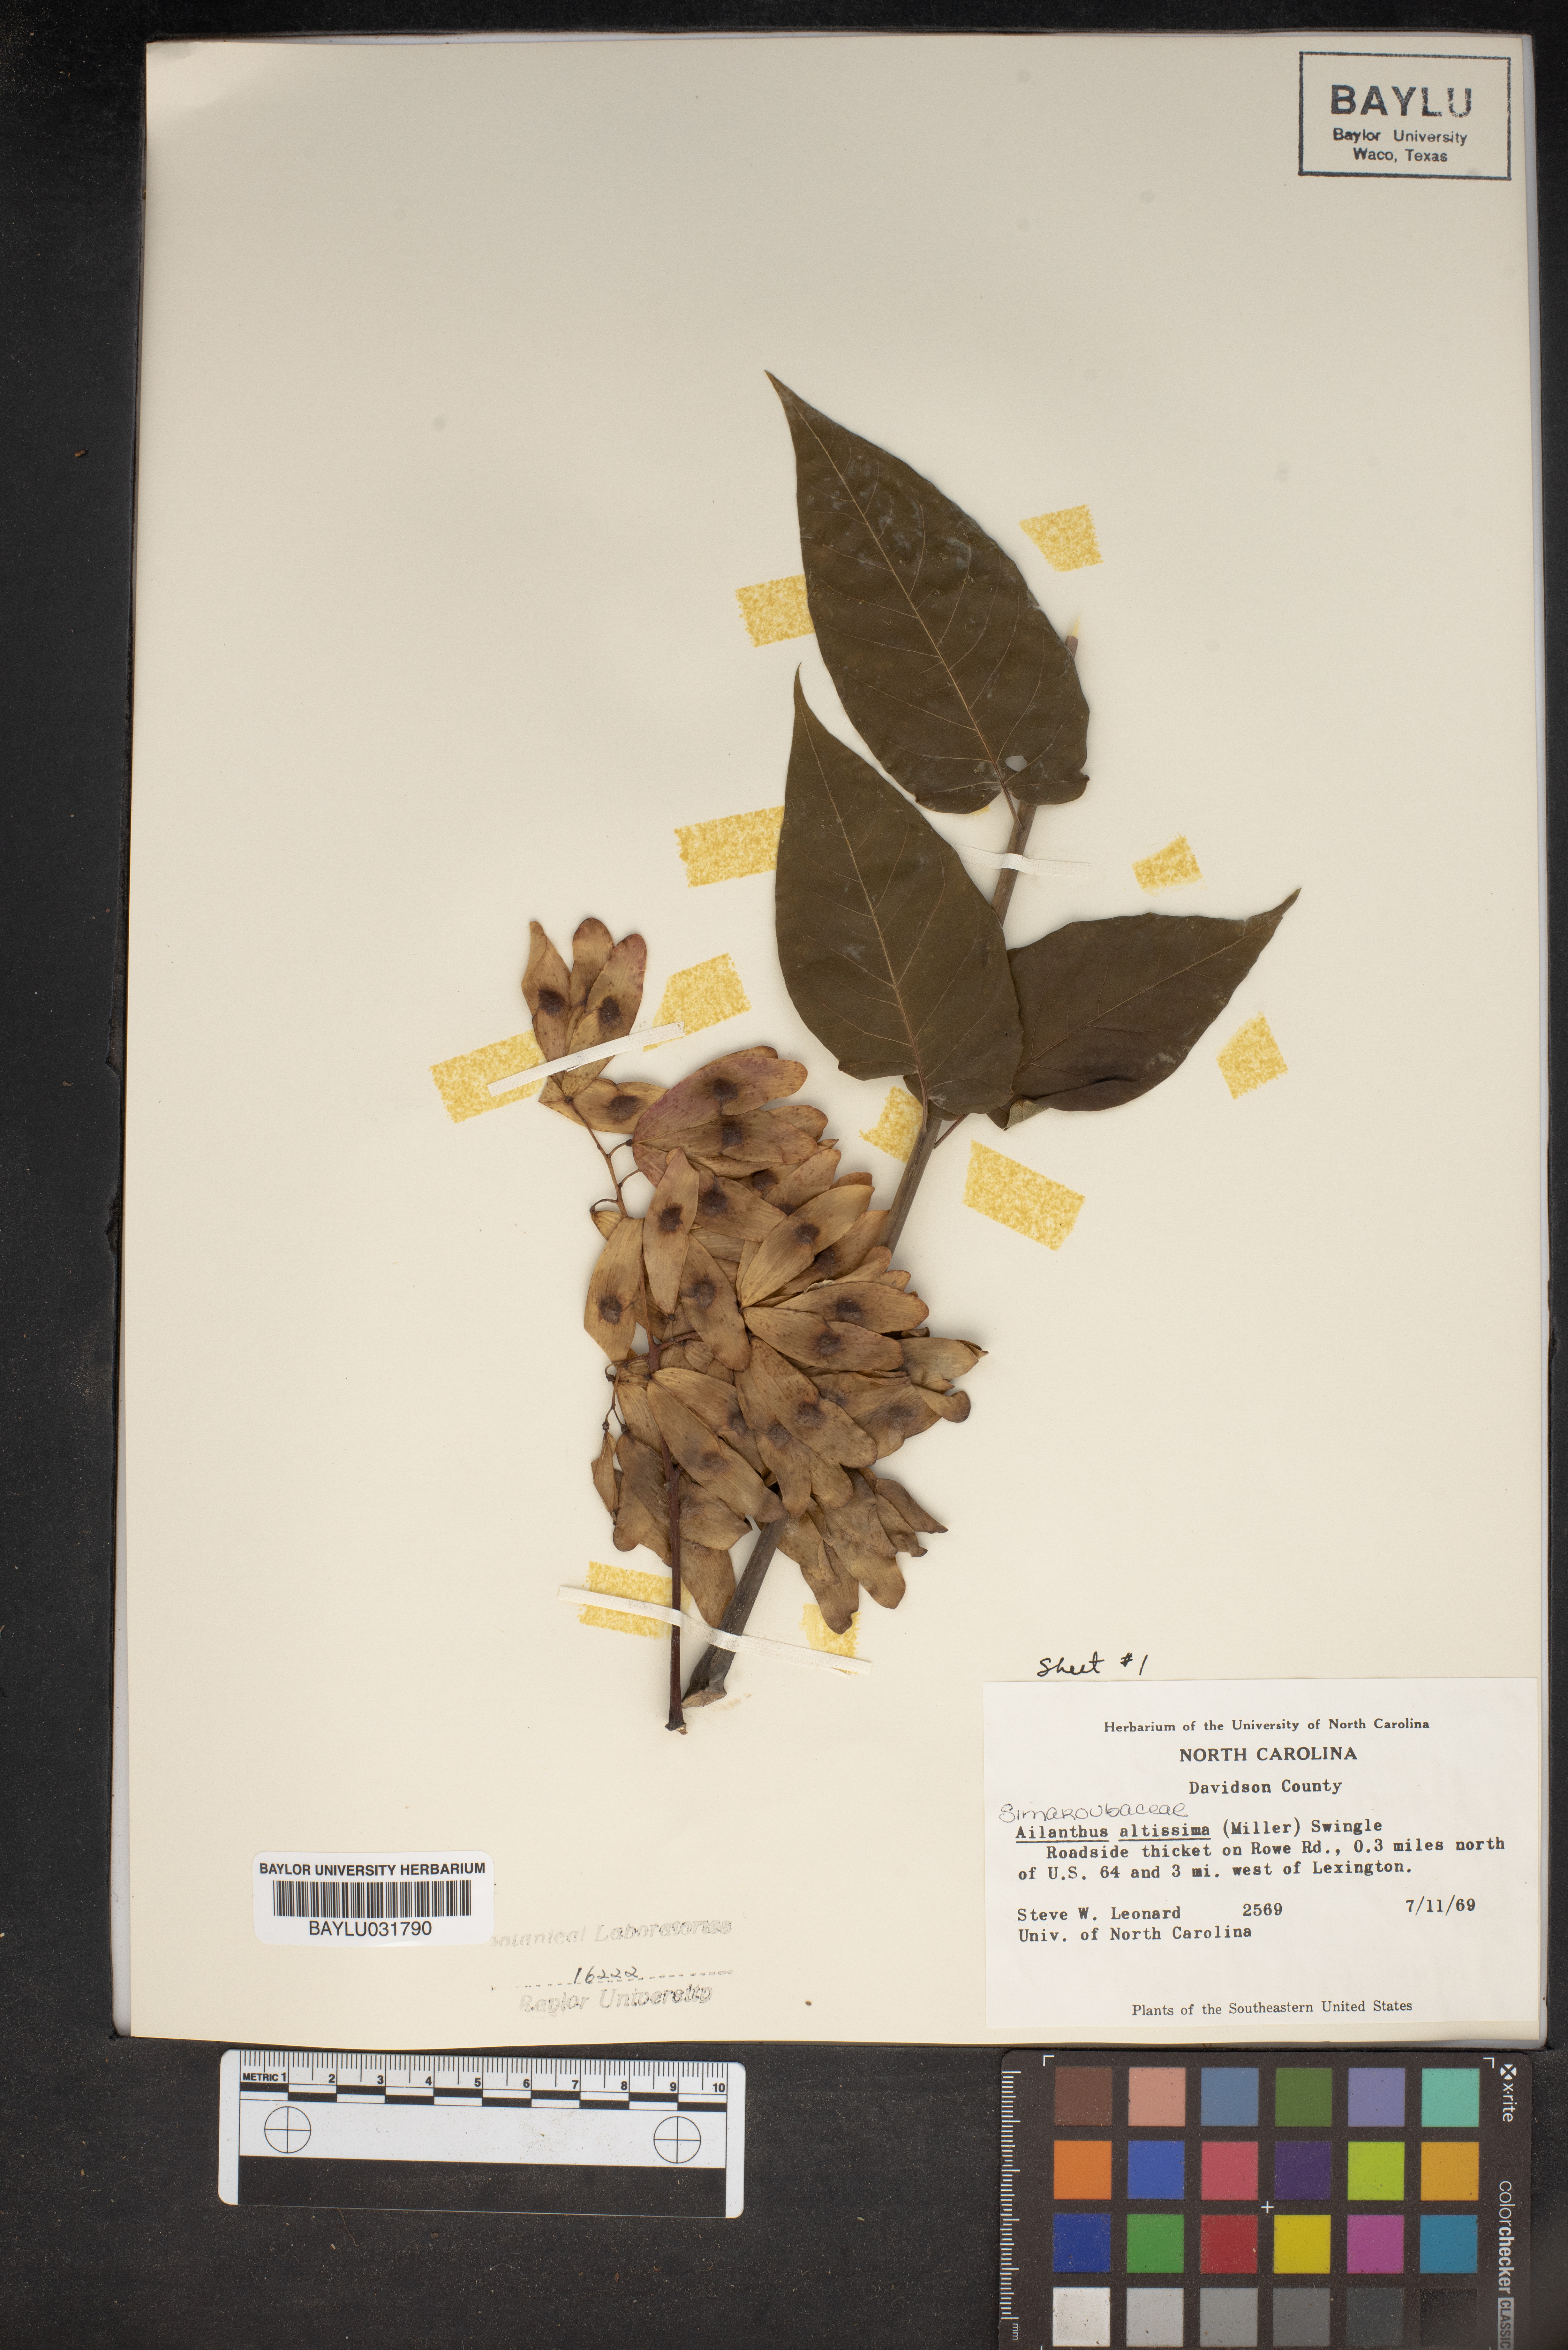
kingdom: Plantae
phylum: Tracheophyta
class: Magnoliopsida
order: Sapindales
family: Simaroubaceae
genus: Ailanthus
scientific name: Ailanthus altissima
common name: Tree-of-heaven
